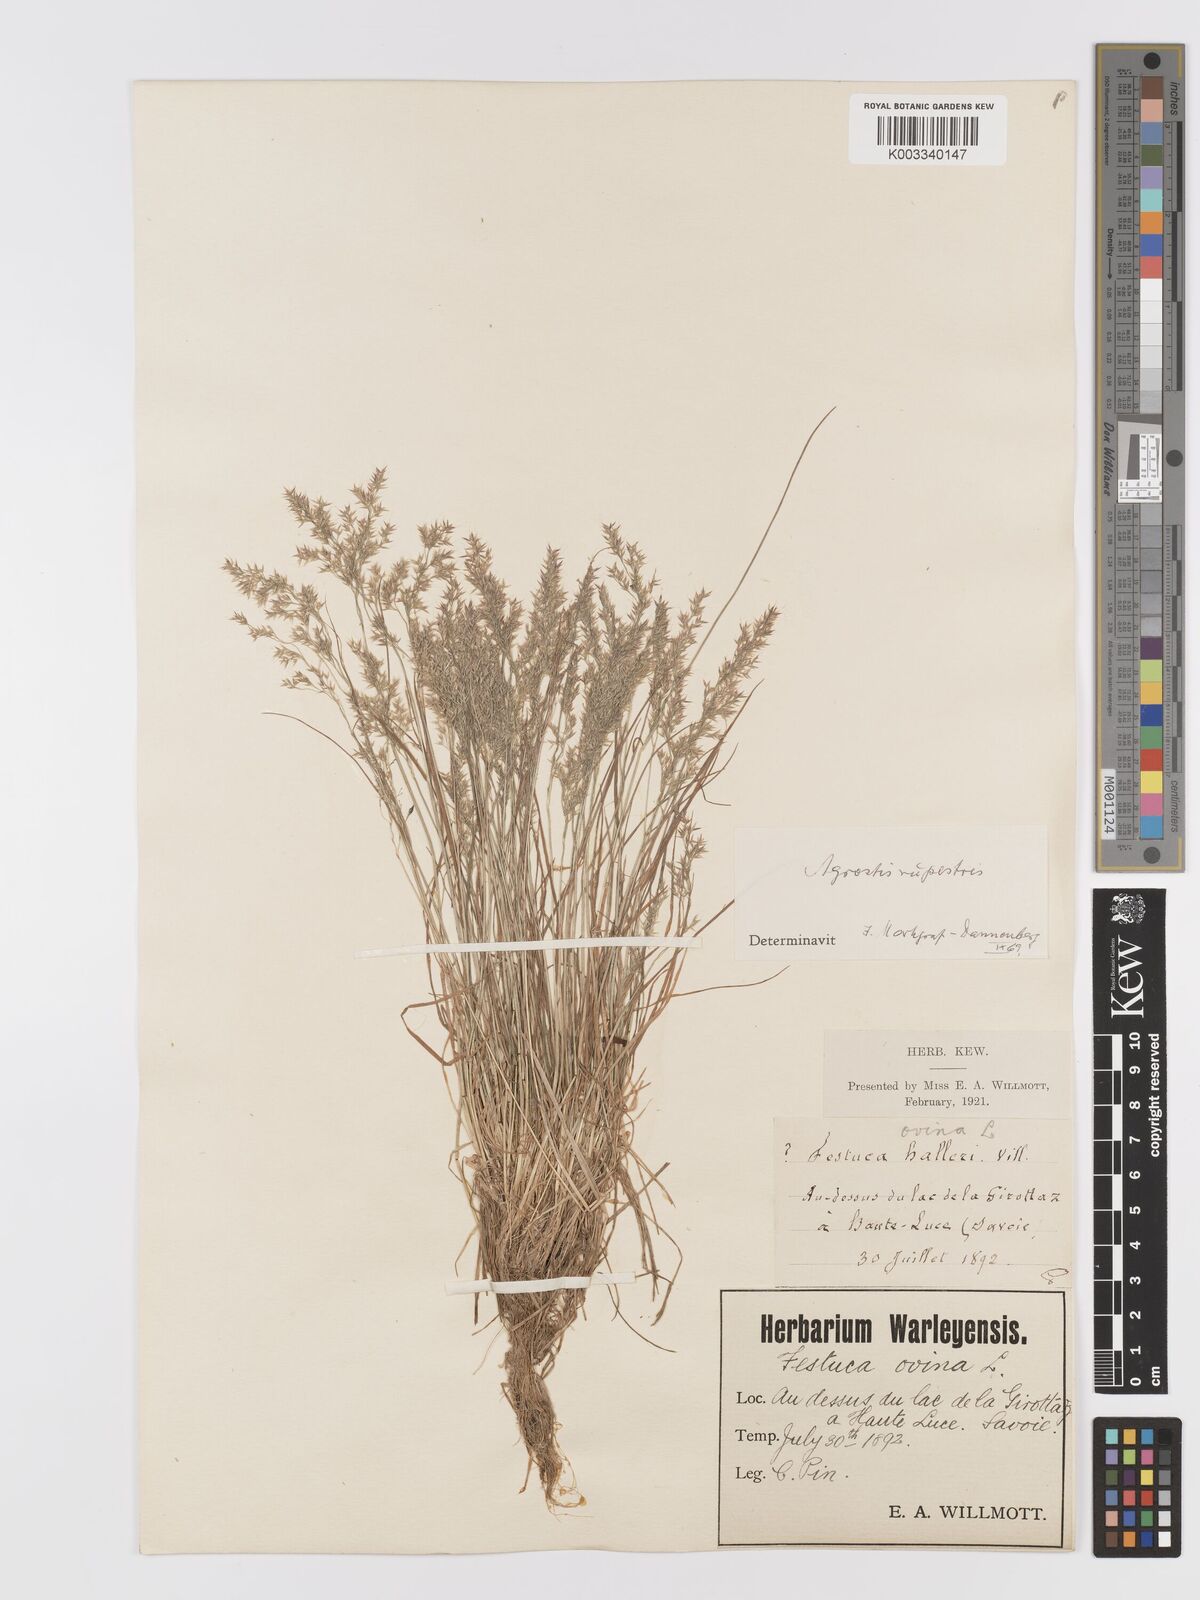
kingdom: Plantae
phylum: Tracheophyta
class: Liliopsida
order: Poales
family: Poaceae
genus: Agrostis
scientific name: Agrostis rupestris
